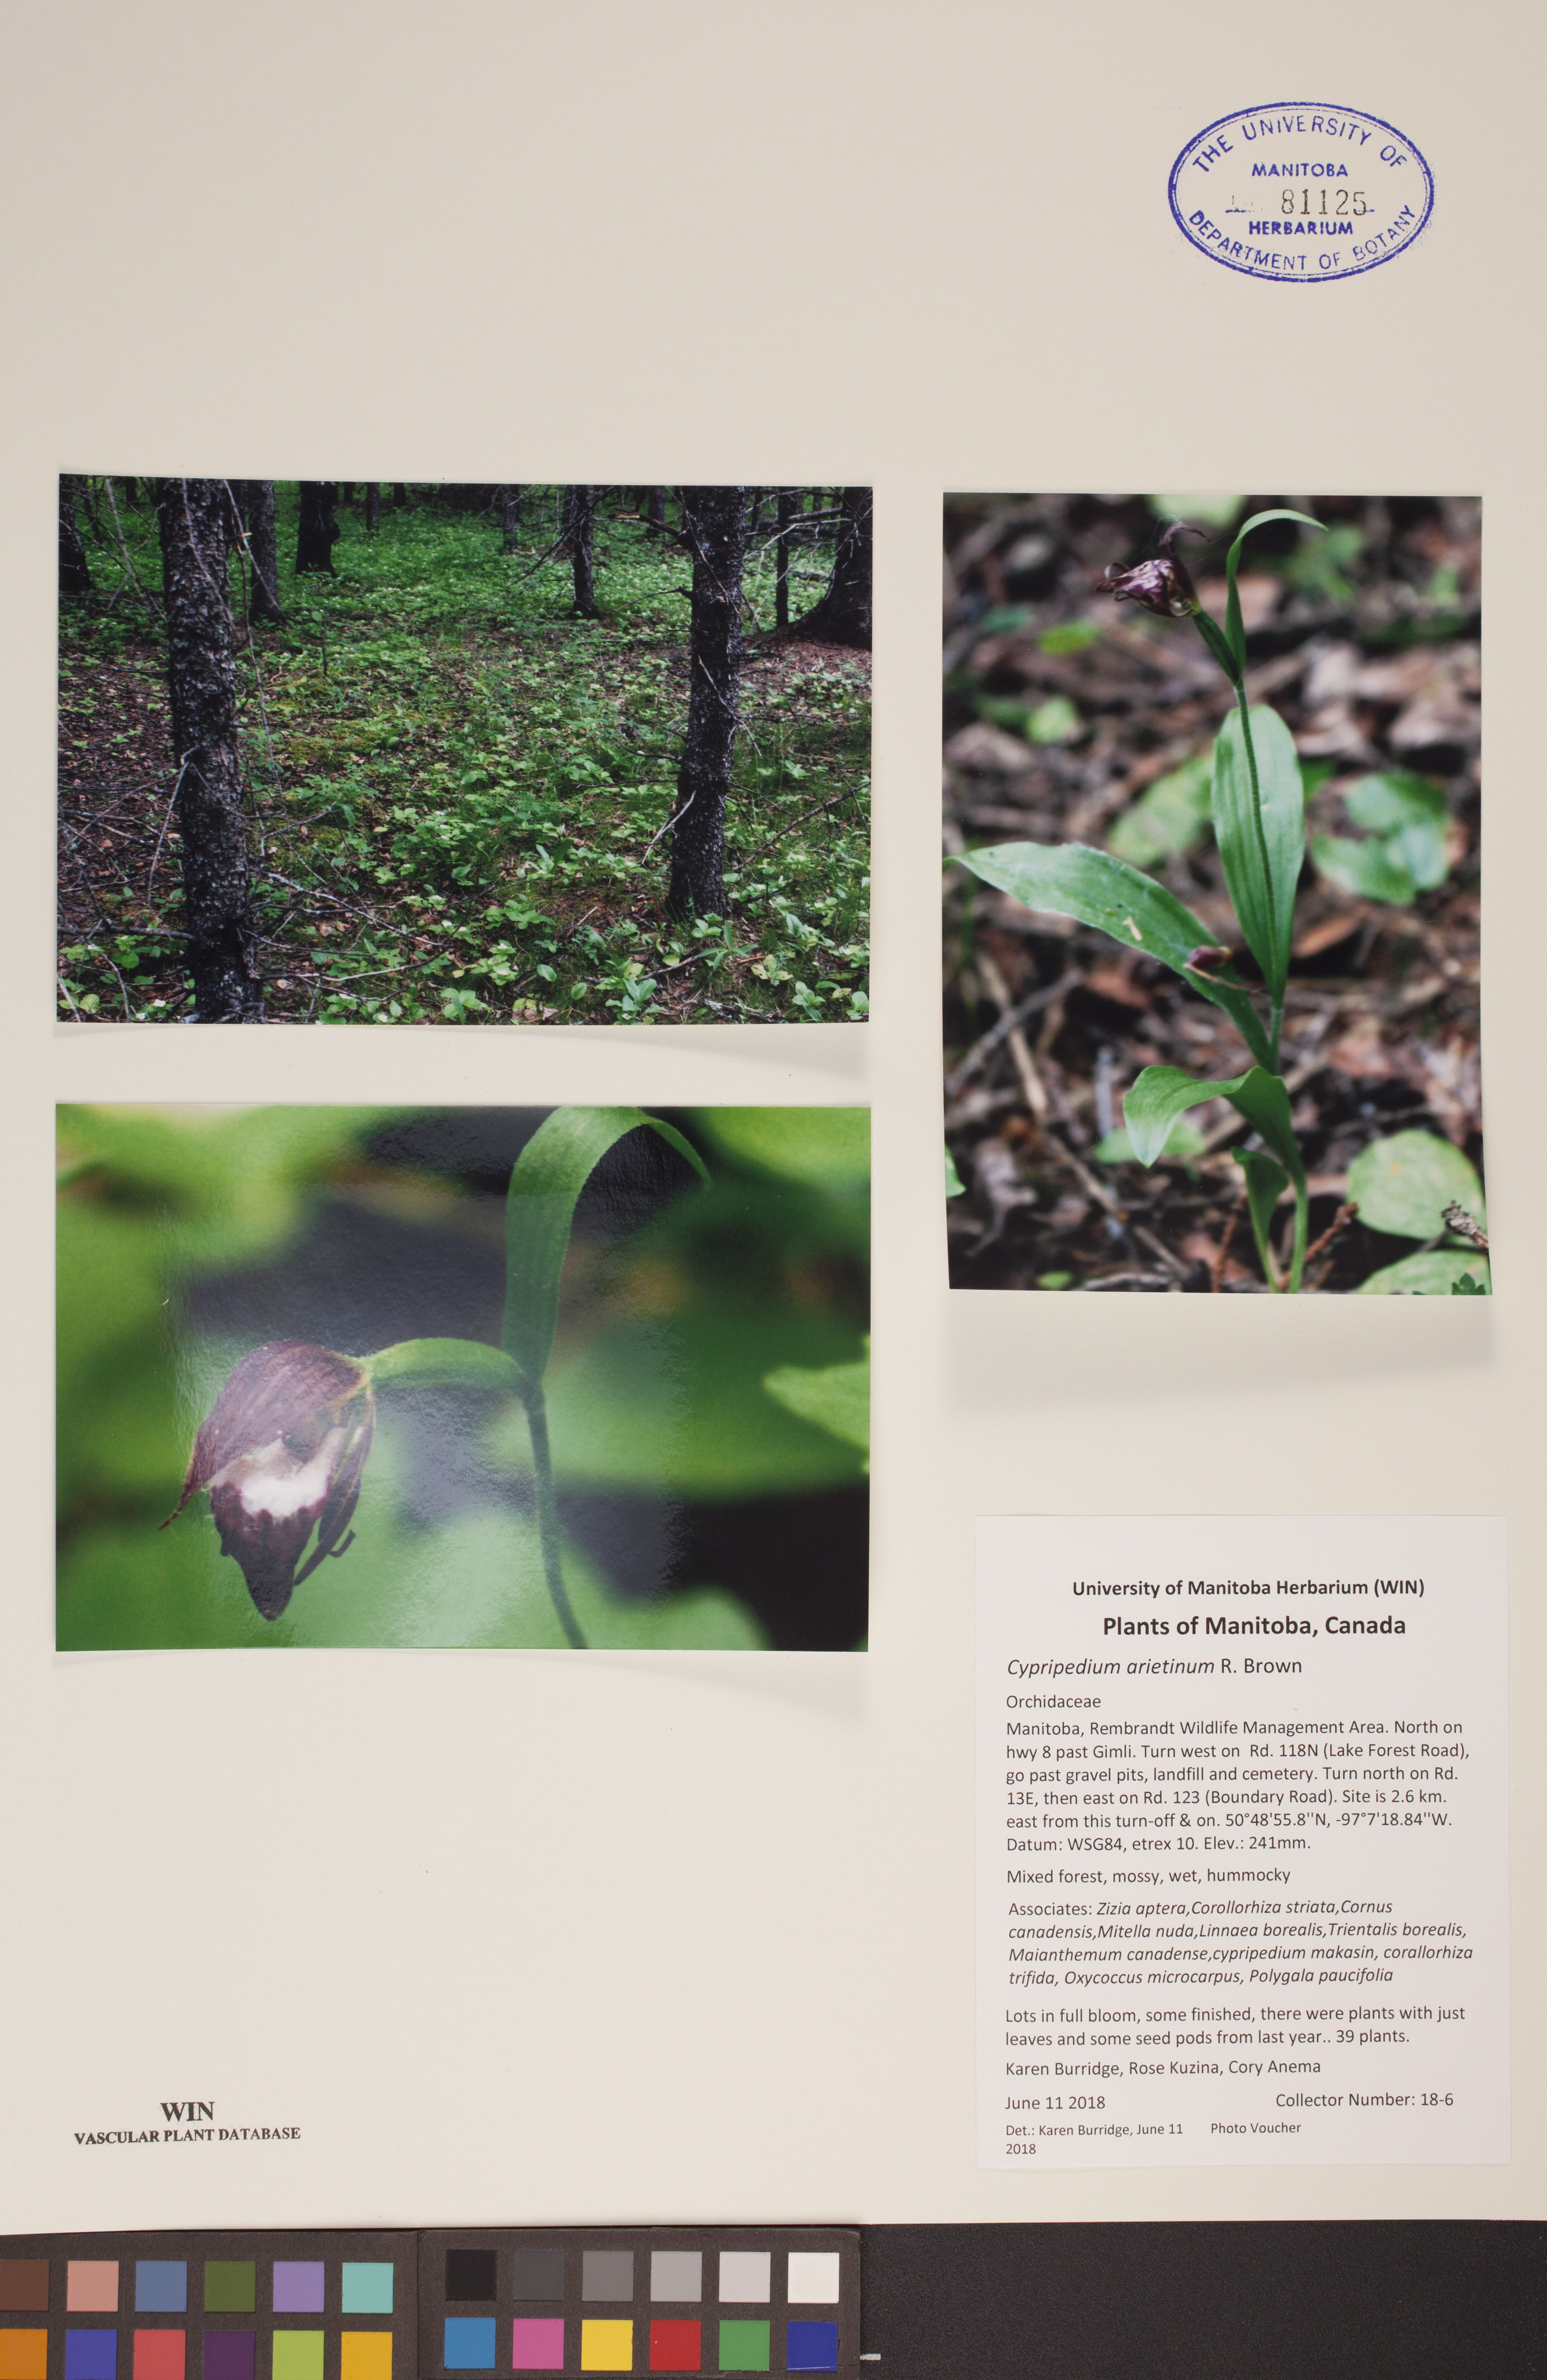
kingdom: Plantae
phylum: Tracheophyta
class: Liliopsida
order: Asparagales
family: Orchidaceae
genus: Cypripedium
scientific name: Cypripedium arietinum
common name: Ram's-head
